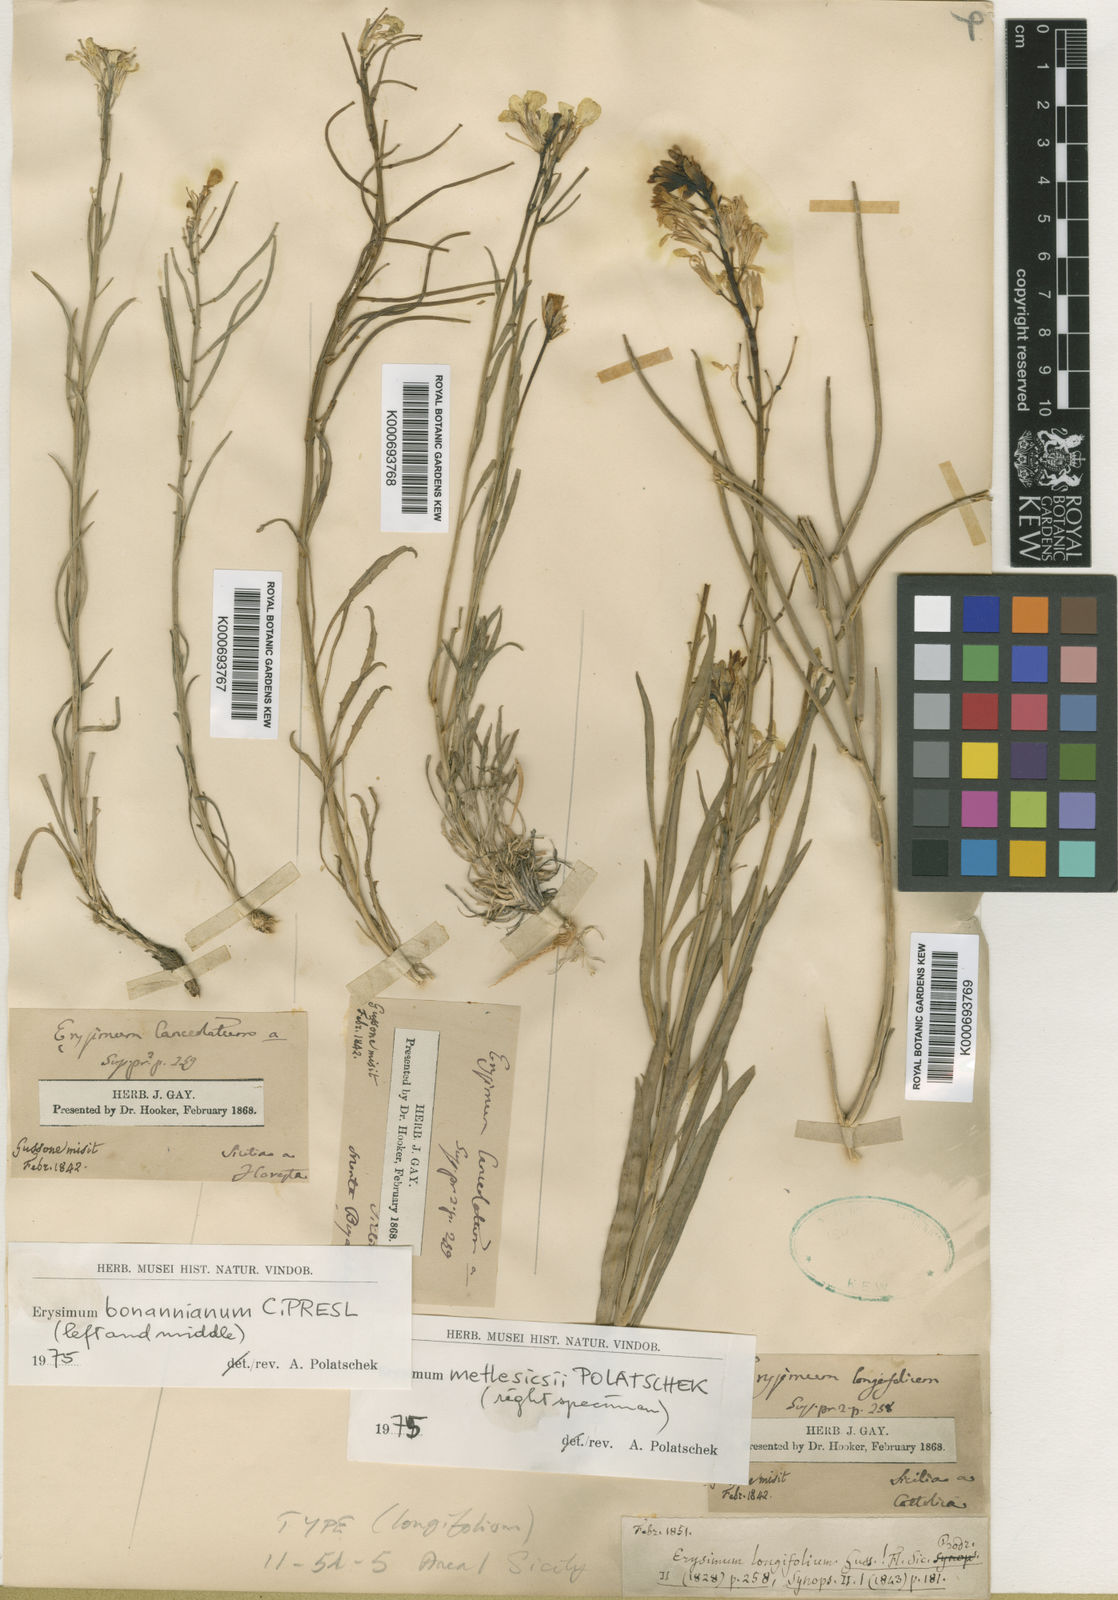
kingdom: Plantae
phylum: Tracheophyta
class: Magnoliopsida
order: Brassicales
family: Brassicaceae
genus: Erysimum
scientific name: Erysimum bonannianum
